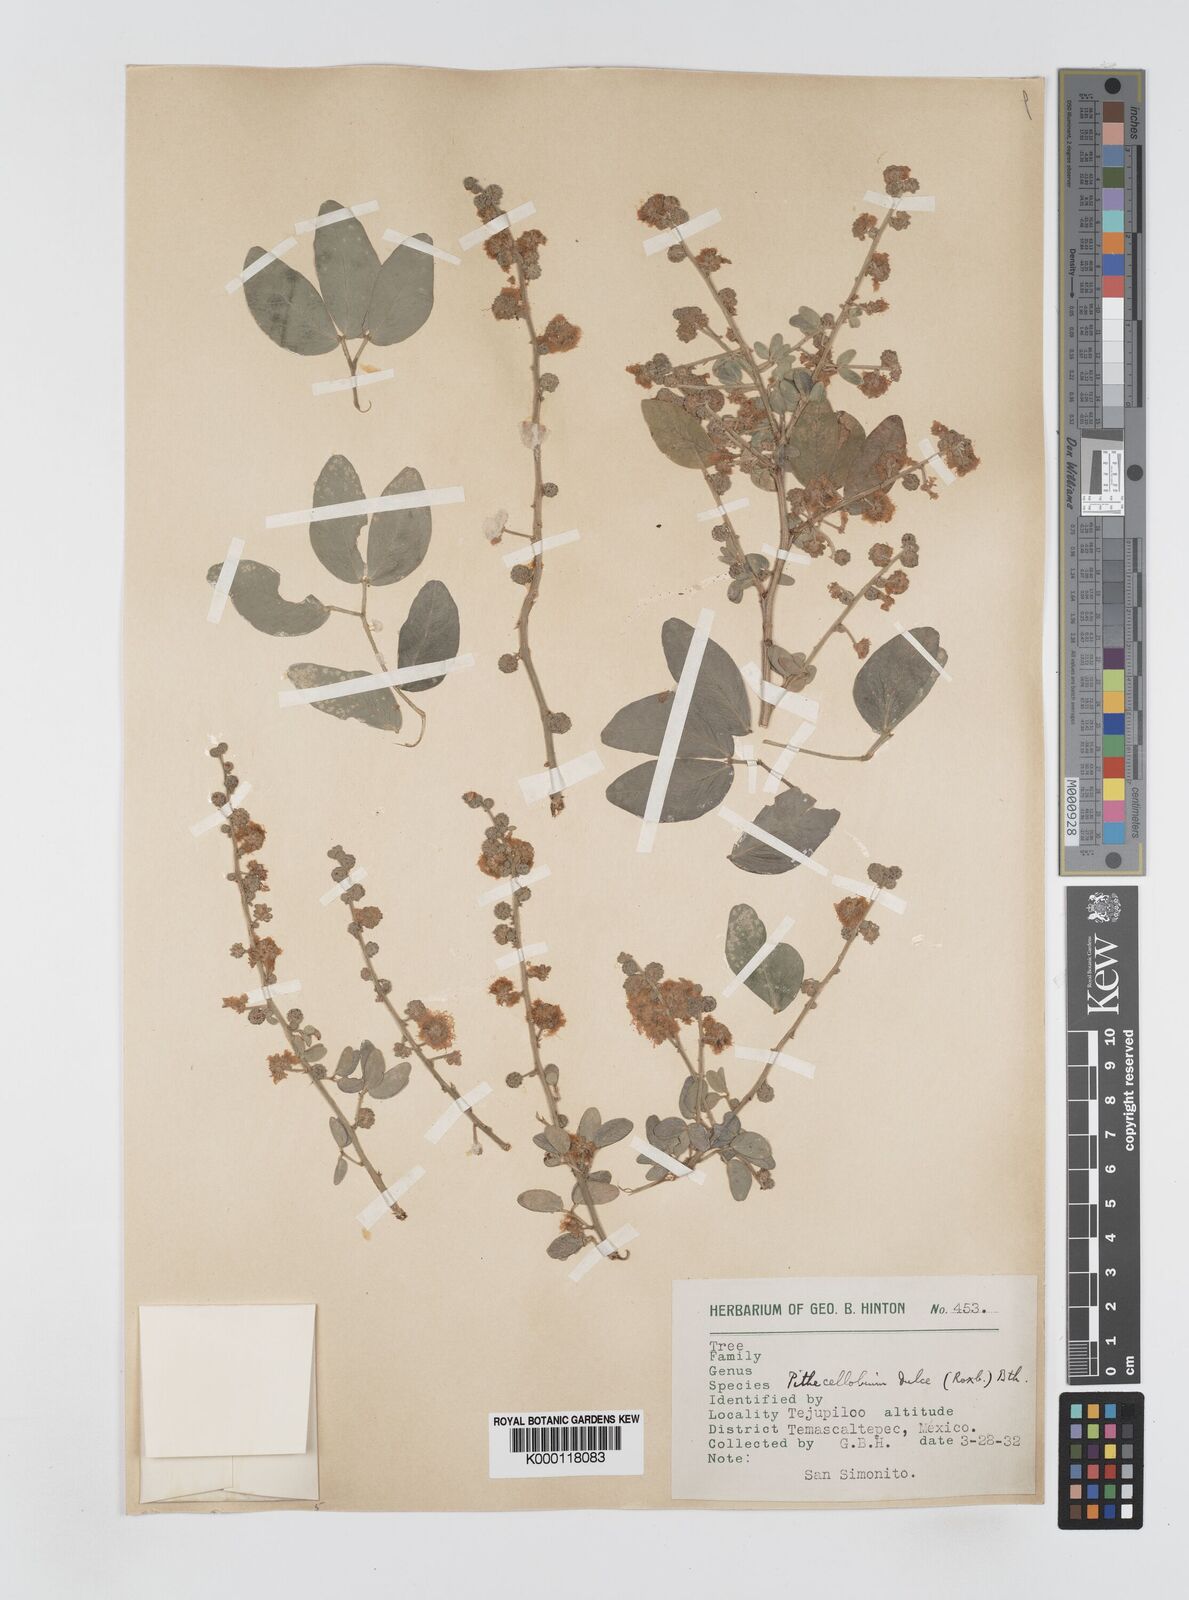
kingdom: Plantae
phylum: Tracheophyta
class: Magnoliopsida
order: Fabales
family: Fabaceae
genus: Pithecellobium
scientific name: Pithecellobium dulce
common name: Monkeypod
